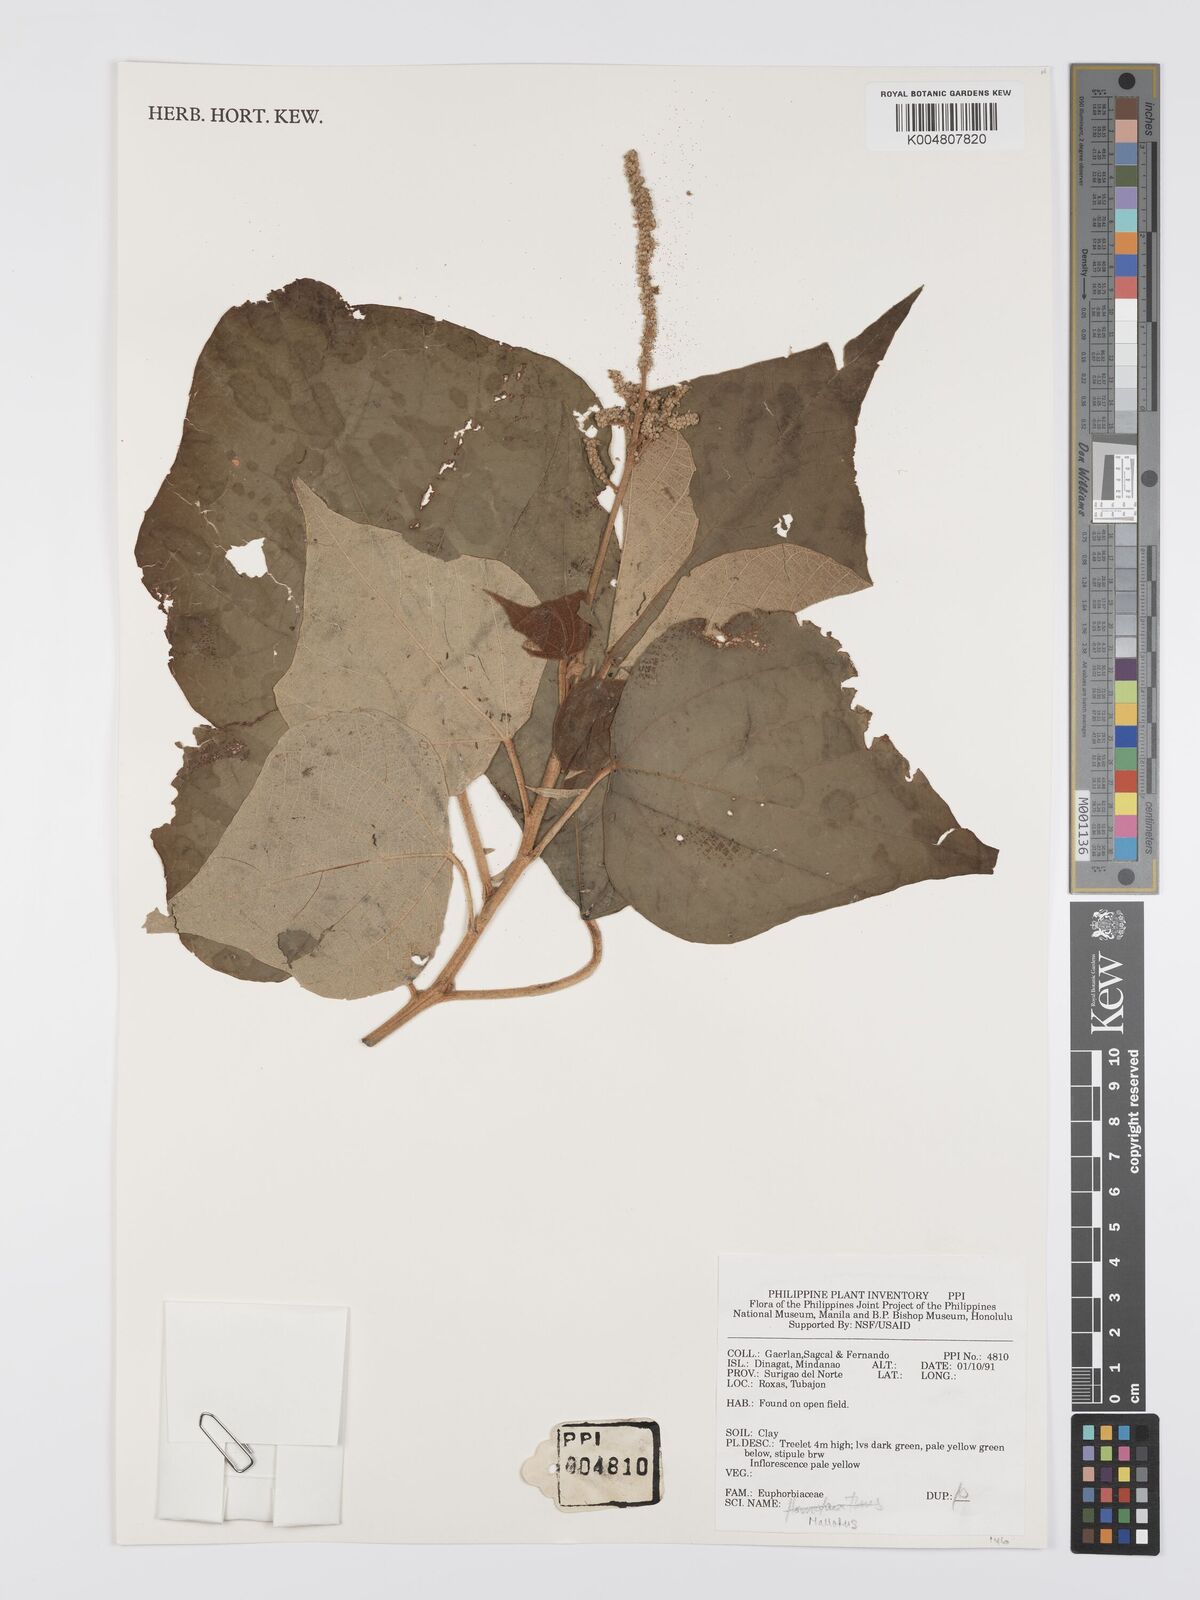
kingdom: Plantae
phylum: Tracheophyta
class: Magnoliopsida
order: Malpighiales
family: Euphorbiaceae
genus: Mallotus
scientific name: Mallotus
